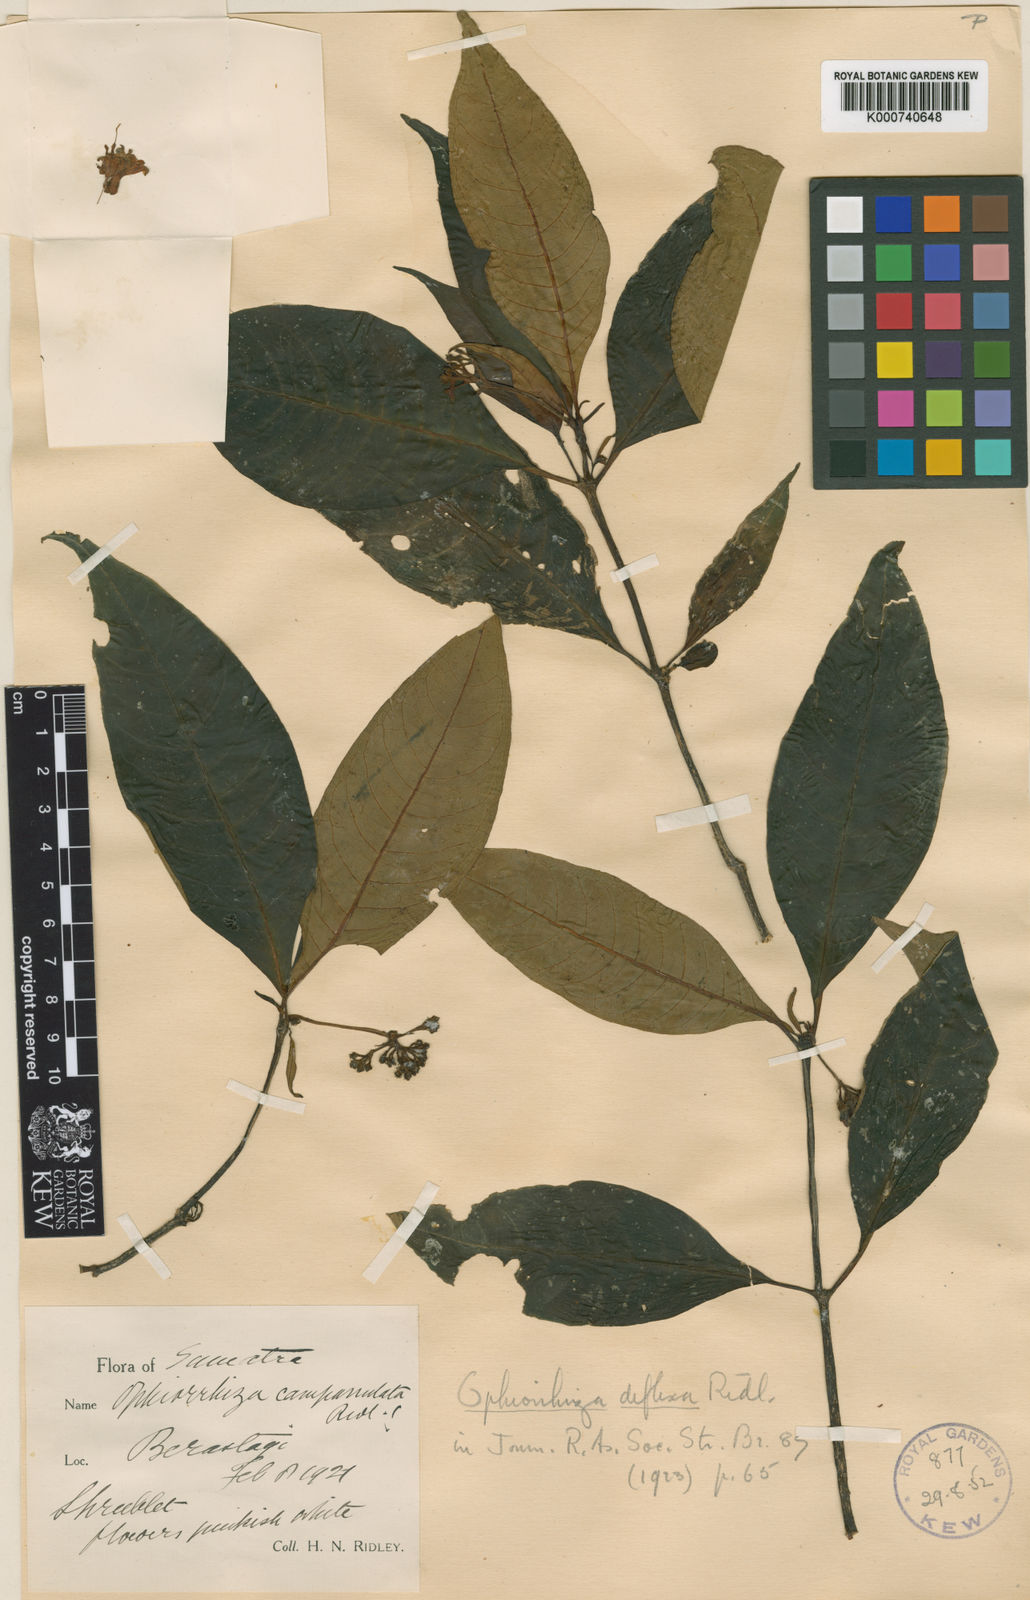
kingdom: Plantae
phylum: Tracheophyta
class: Magnoliopsida
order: Gentianales
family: Rubiaceae
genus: Ophiorrhiza
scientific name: Ophiorrhiza deflexa
